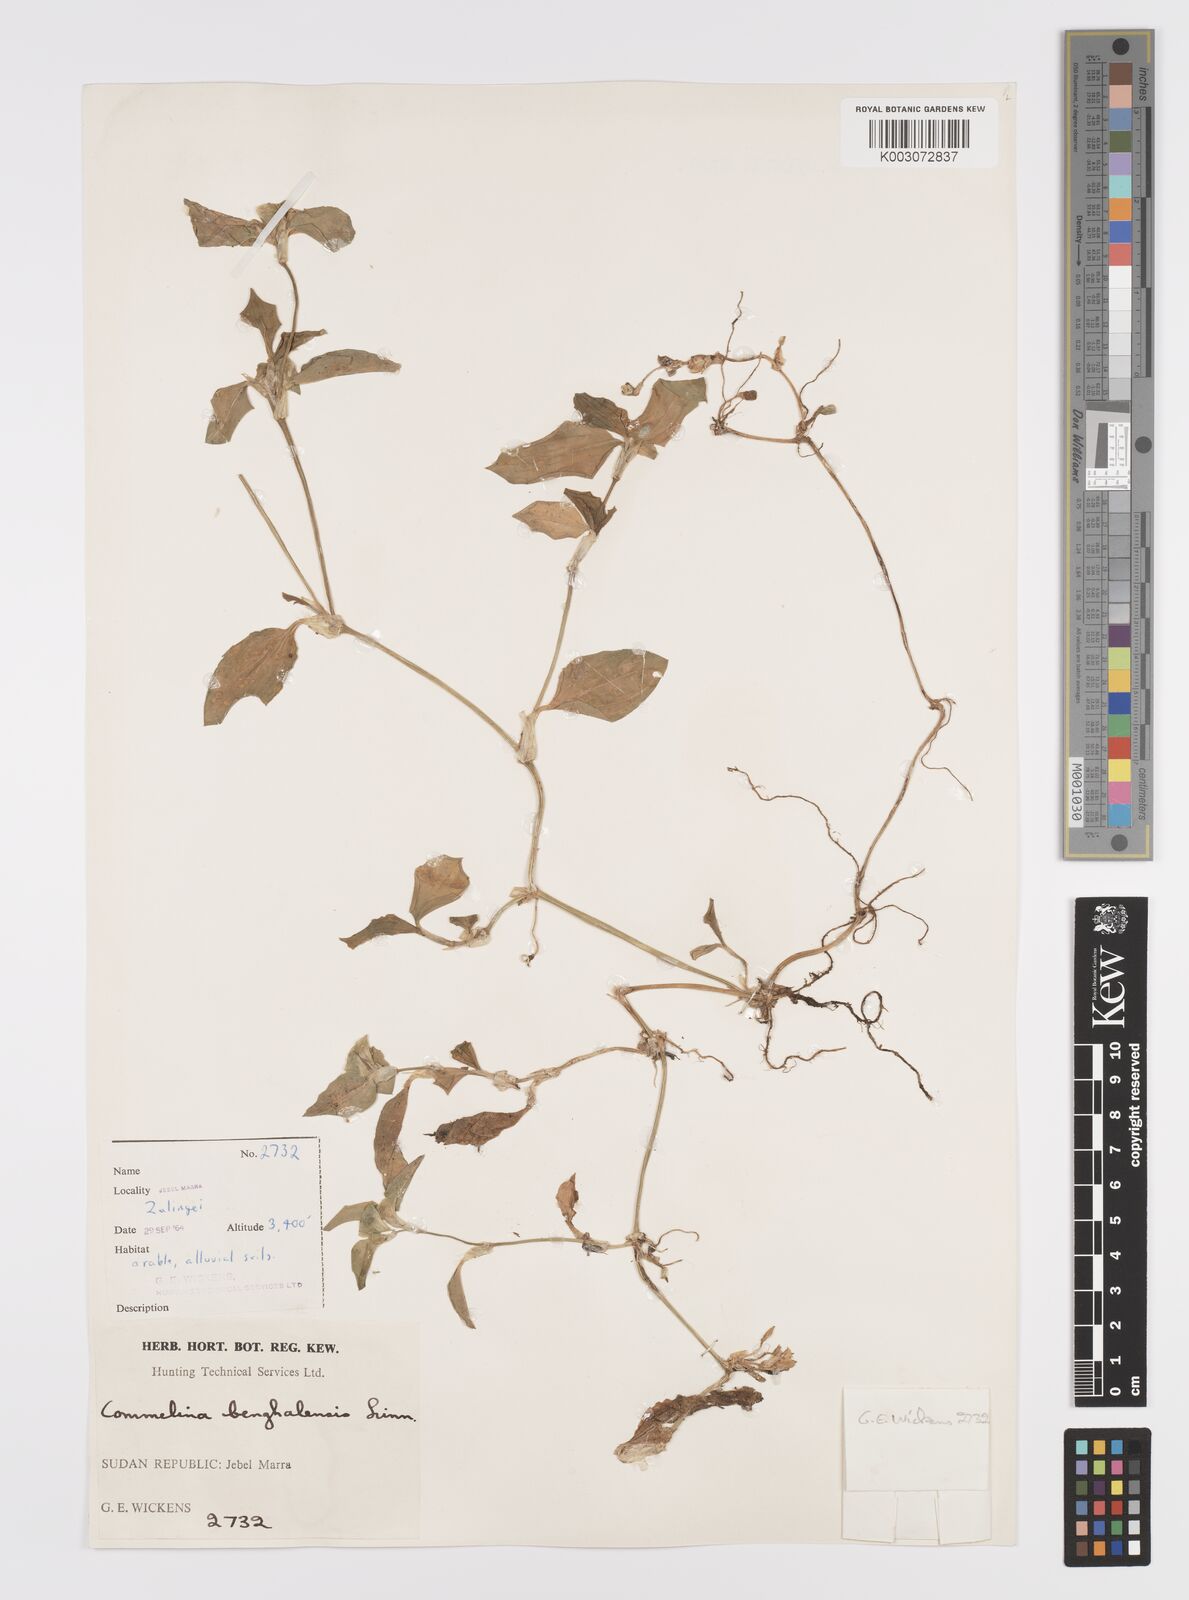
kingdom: Plantae
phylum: Tracheophyta
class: Liliopsida
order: Commelinales
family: Commelinaceae
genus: Commelina
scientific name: Commelina benghalensis
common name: Jio
